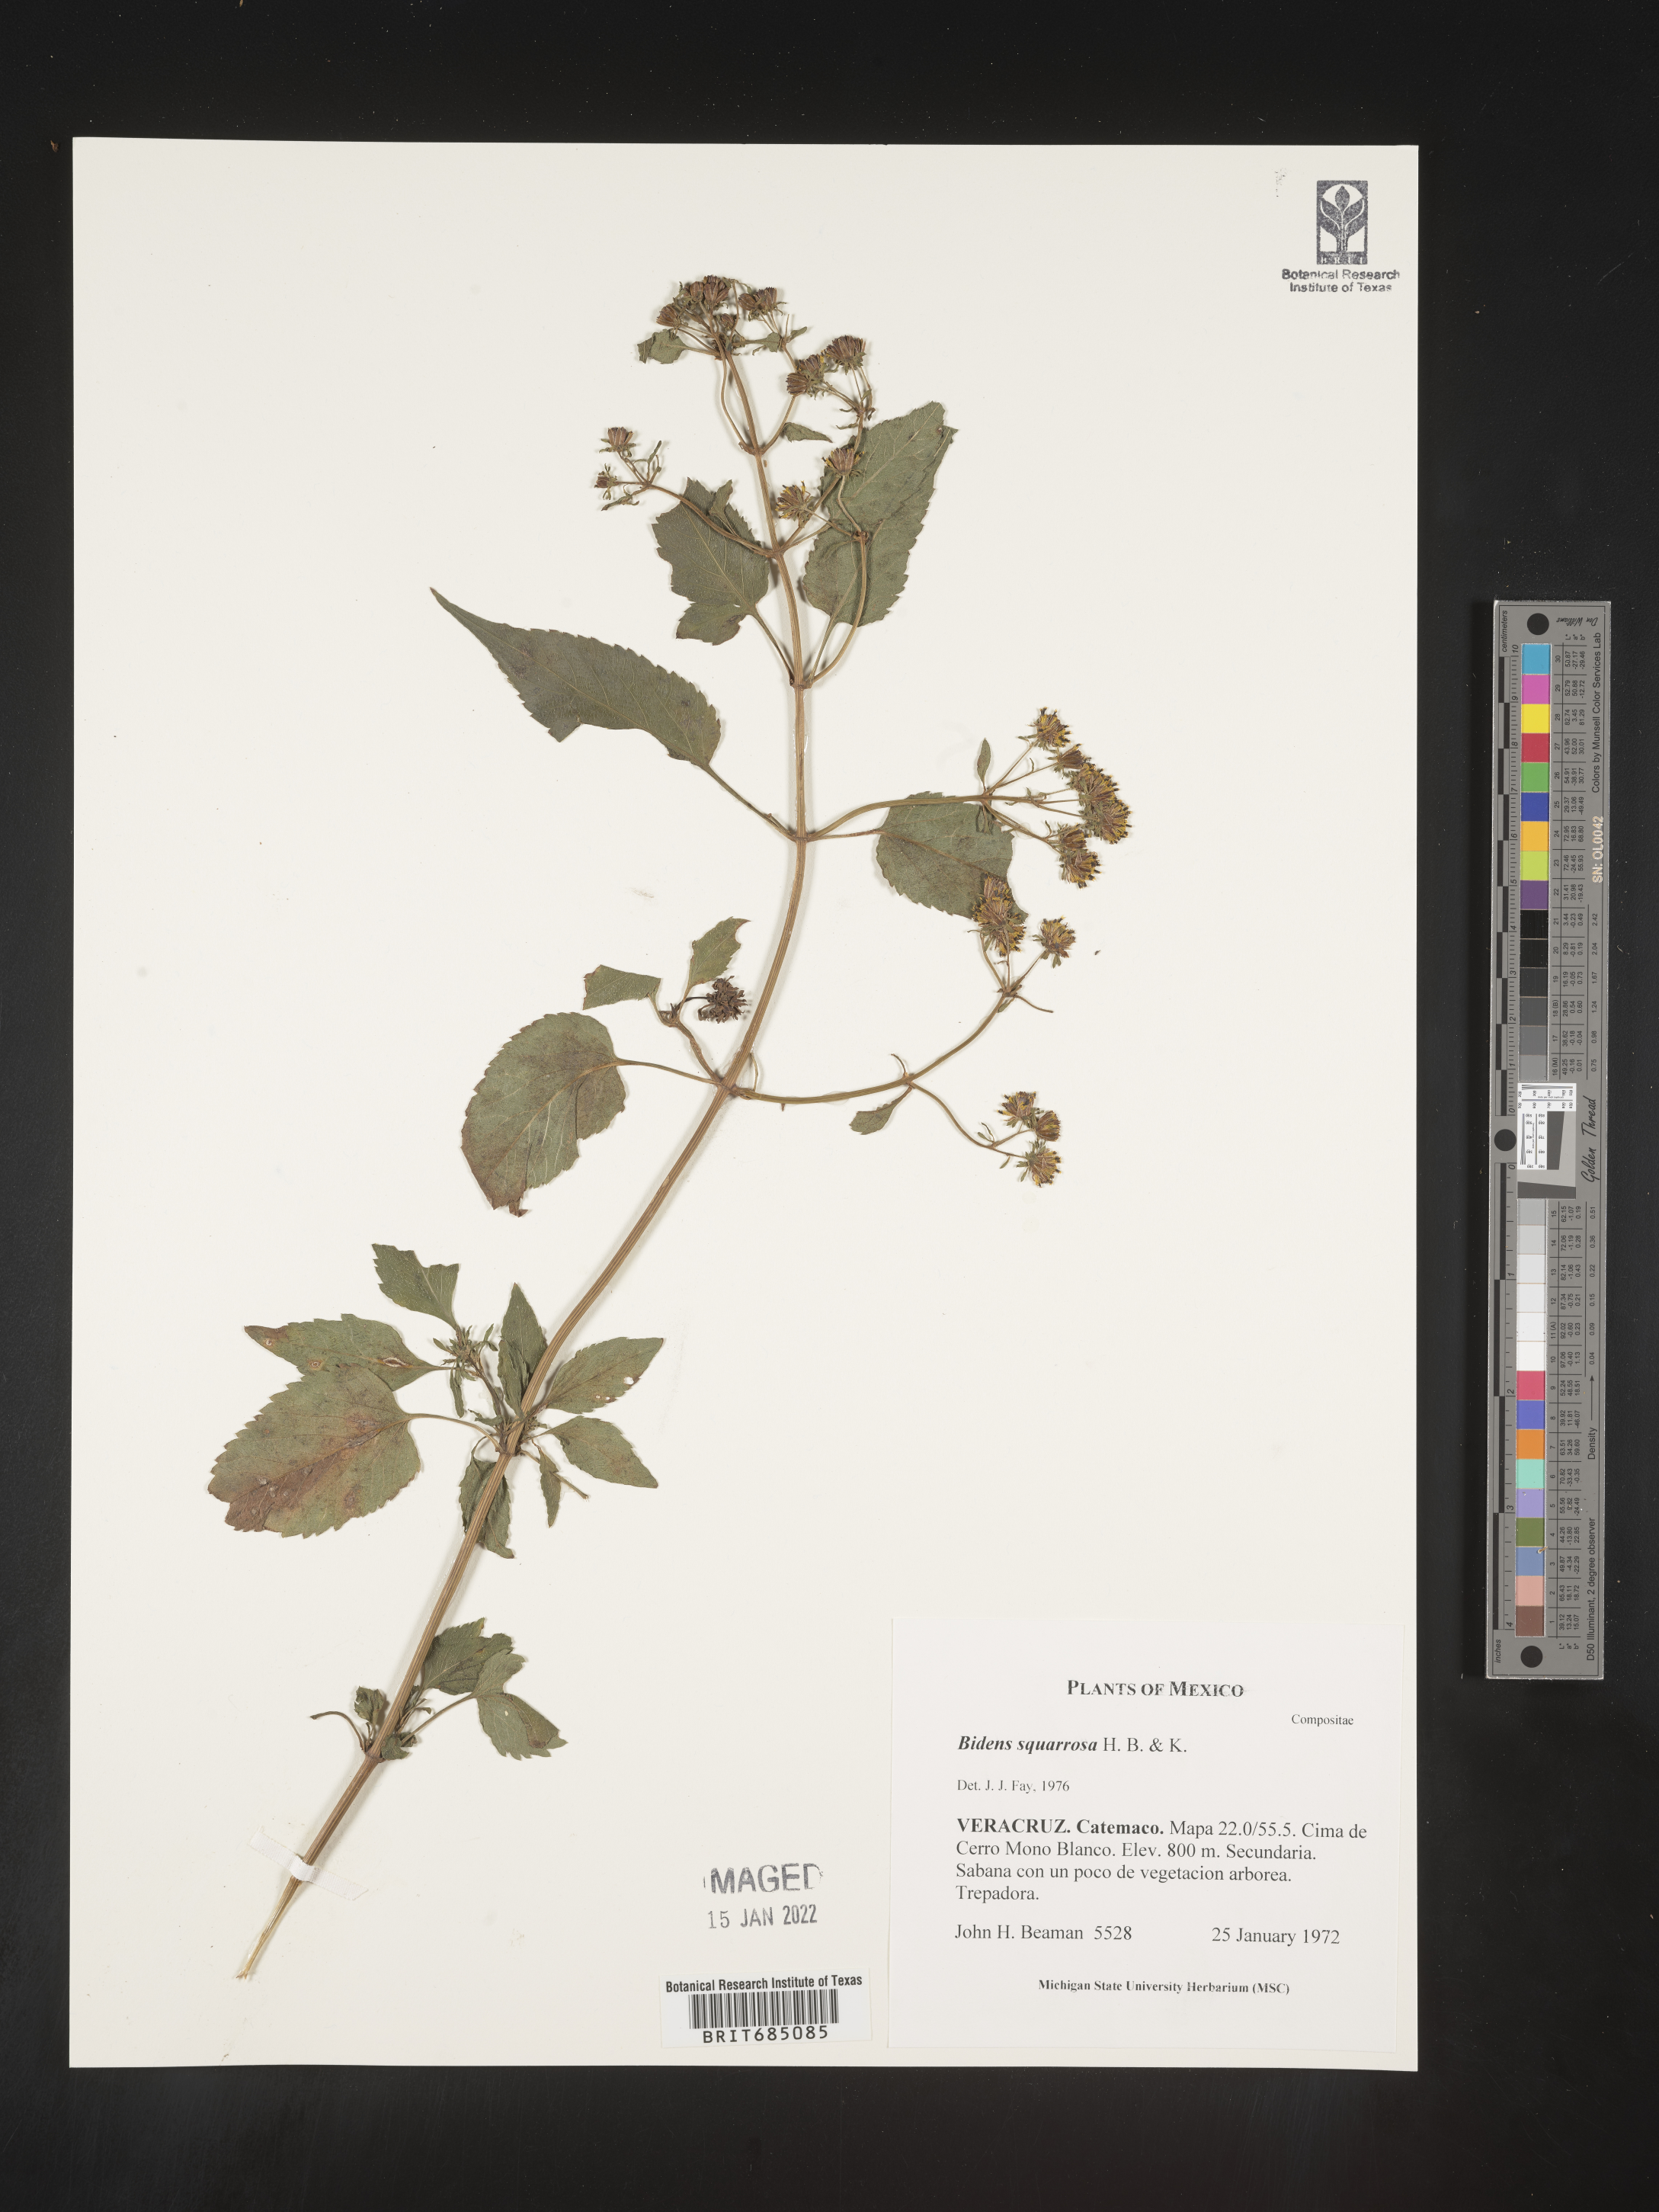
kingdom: Plantae
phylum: Tracheophyta
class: Magnoliopsida
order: Asterales
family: Asteraceae
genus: Bidens
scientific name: Bidens rubicundula
